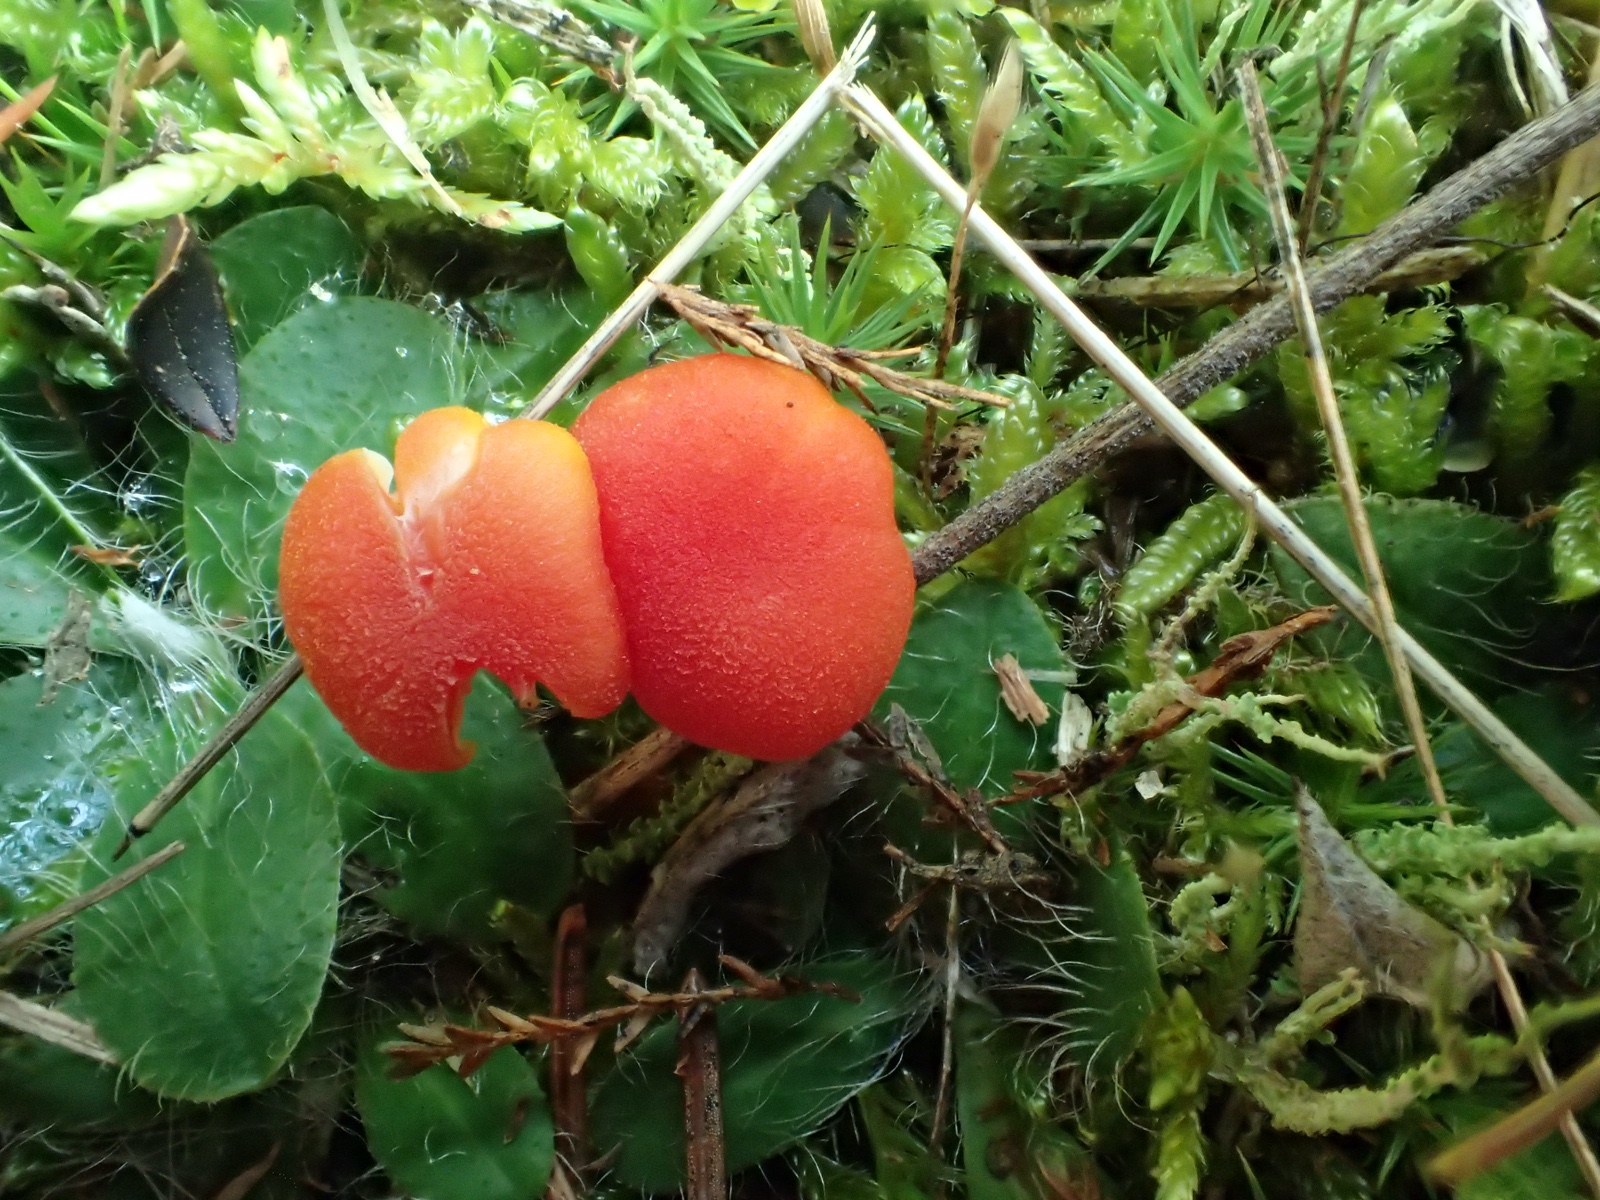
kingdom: Fungi
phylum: Basidiomycota
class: Agaricomycetes
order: Agaricales
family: Hygrophoraceae
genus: Hygrocybe
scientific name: Hygrocybe miniata
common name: mønje-vokshat
